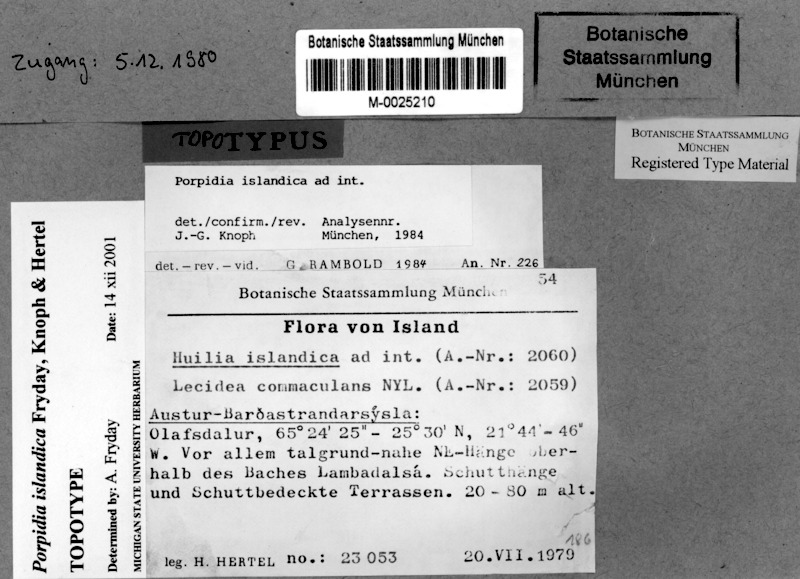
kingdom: Fungi
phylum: Ascomycota
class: Lecanoromycetes
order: Lecideales
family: Lecideaceae
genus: Porpidia
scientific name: Porpidia islandica
